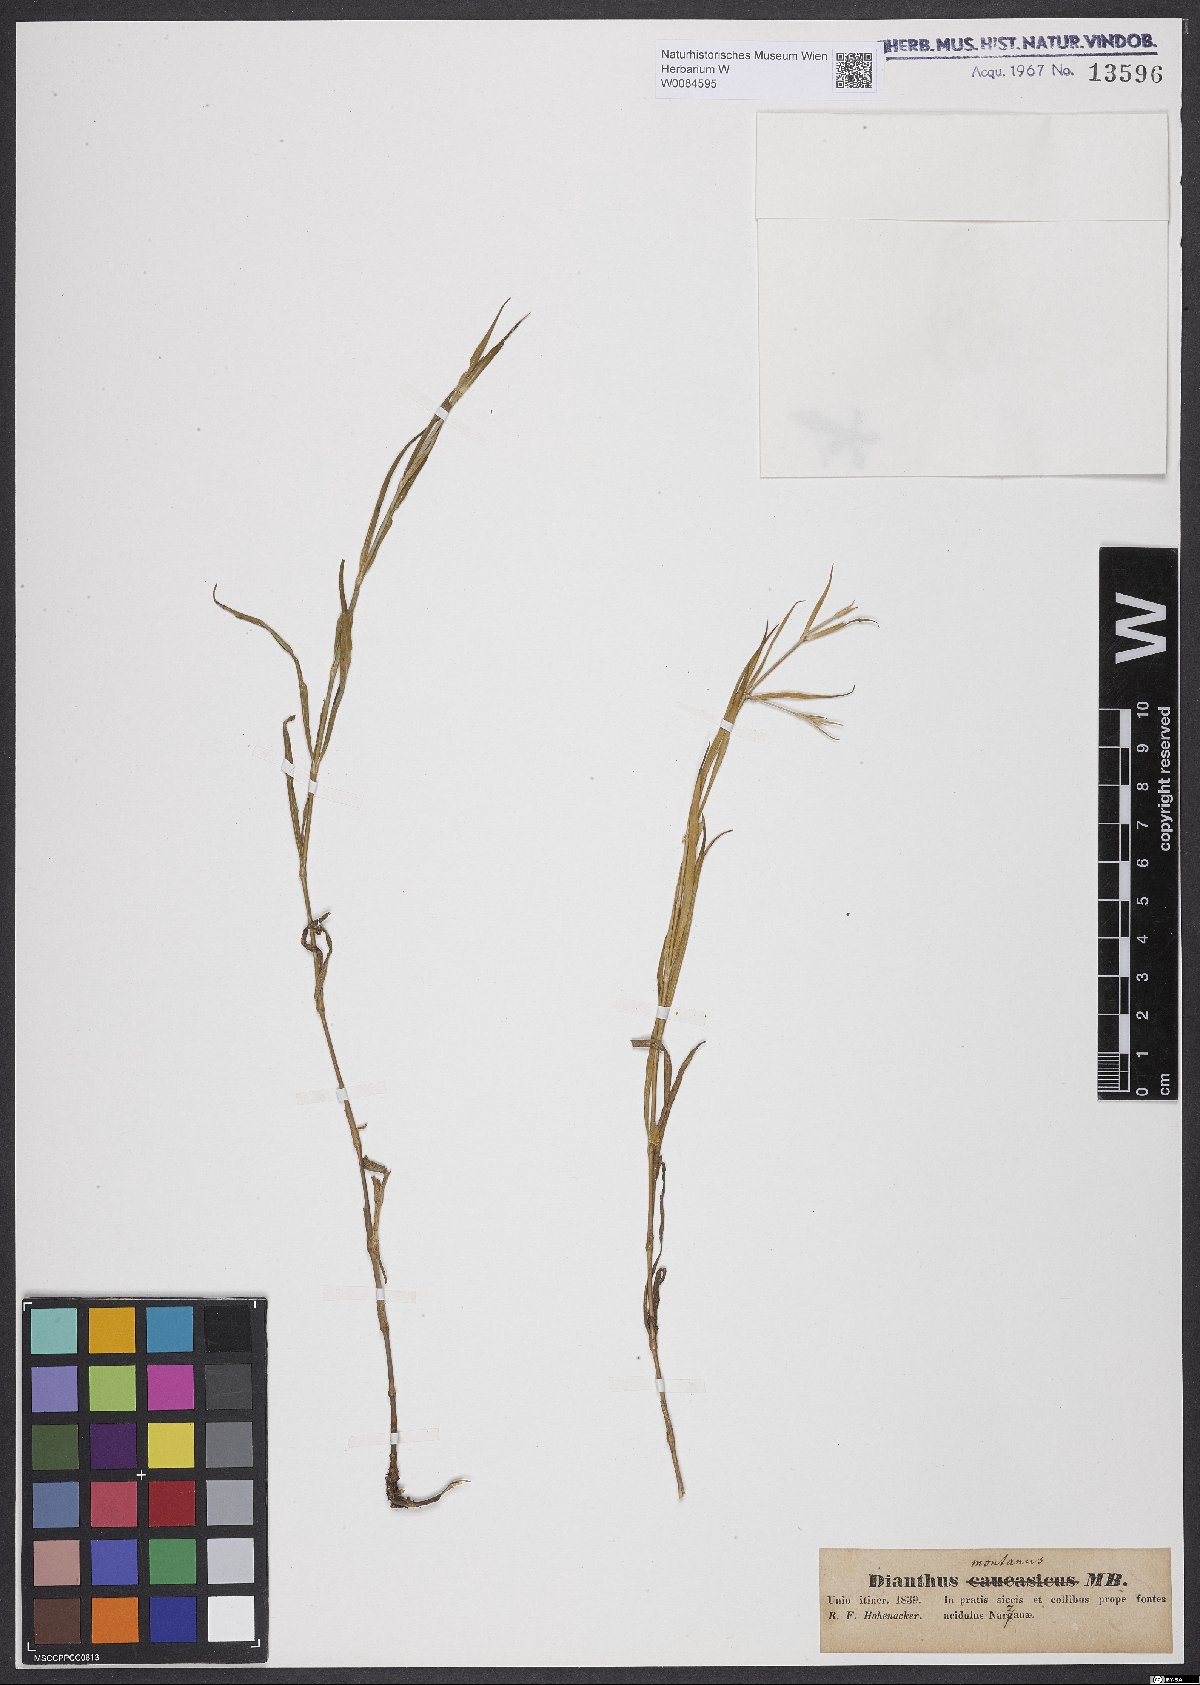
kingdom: Plantae
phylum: Tracheophyta
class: Magnoliopsida
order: Caryophyllales
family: Caryophyllaceae
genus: Dianthus
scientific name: Dianthus caucaseus
